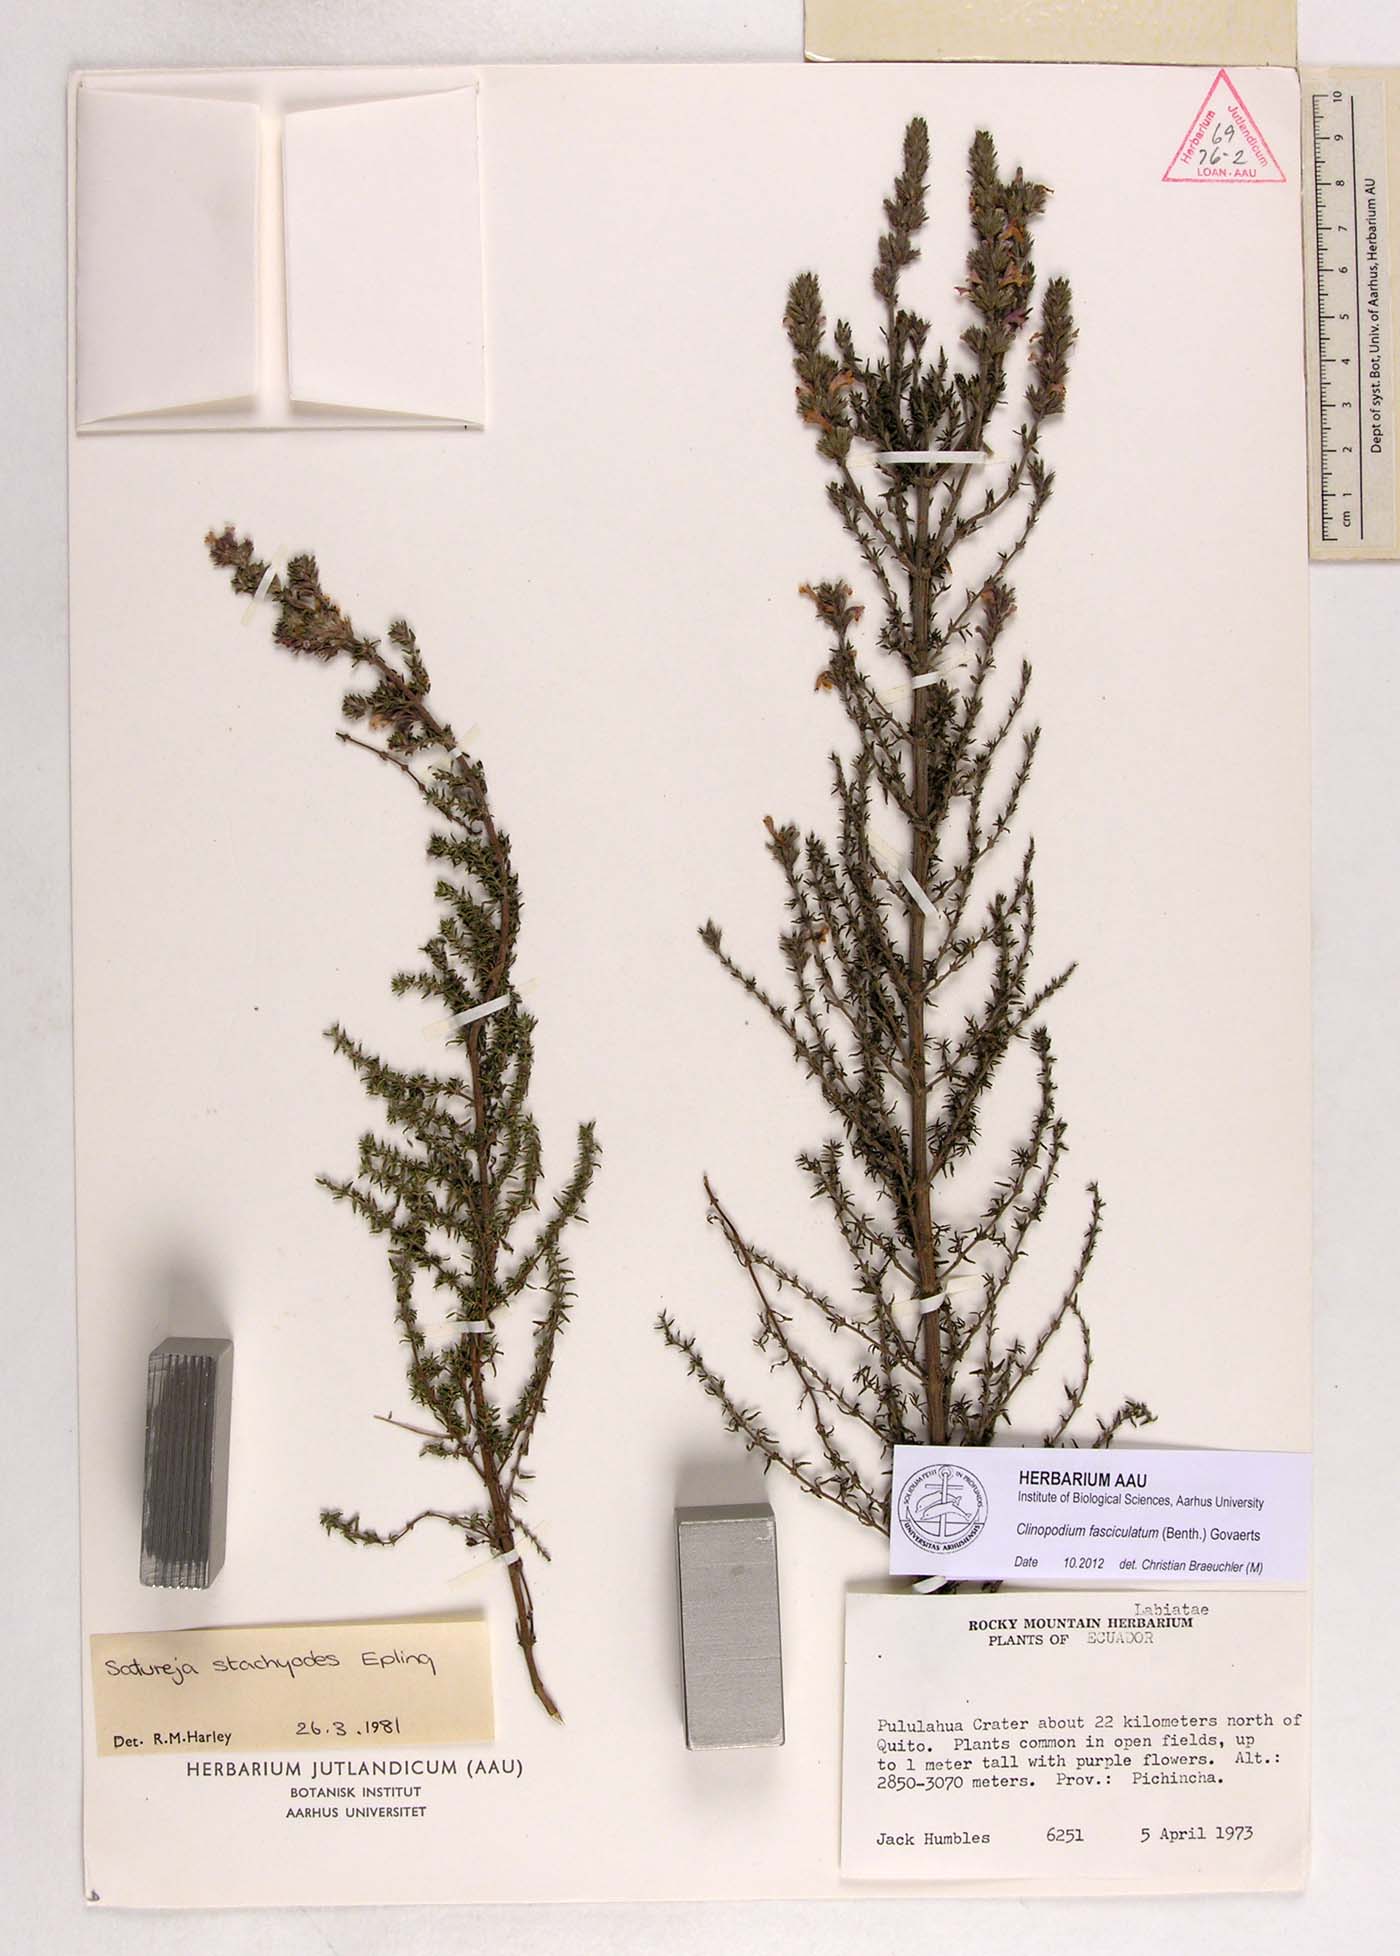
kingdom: Plantae
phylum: Tracheophyta
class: Magnoliopsida
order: Lamiales
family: Lamiaceae
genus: Clinopodium
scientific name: Clinopodium fasciculatum
